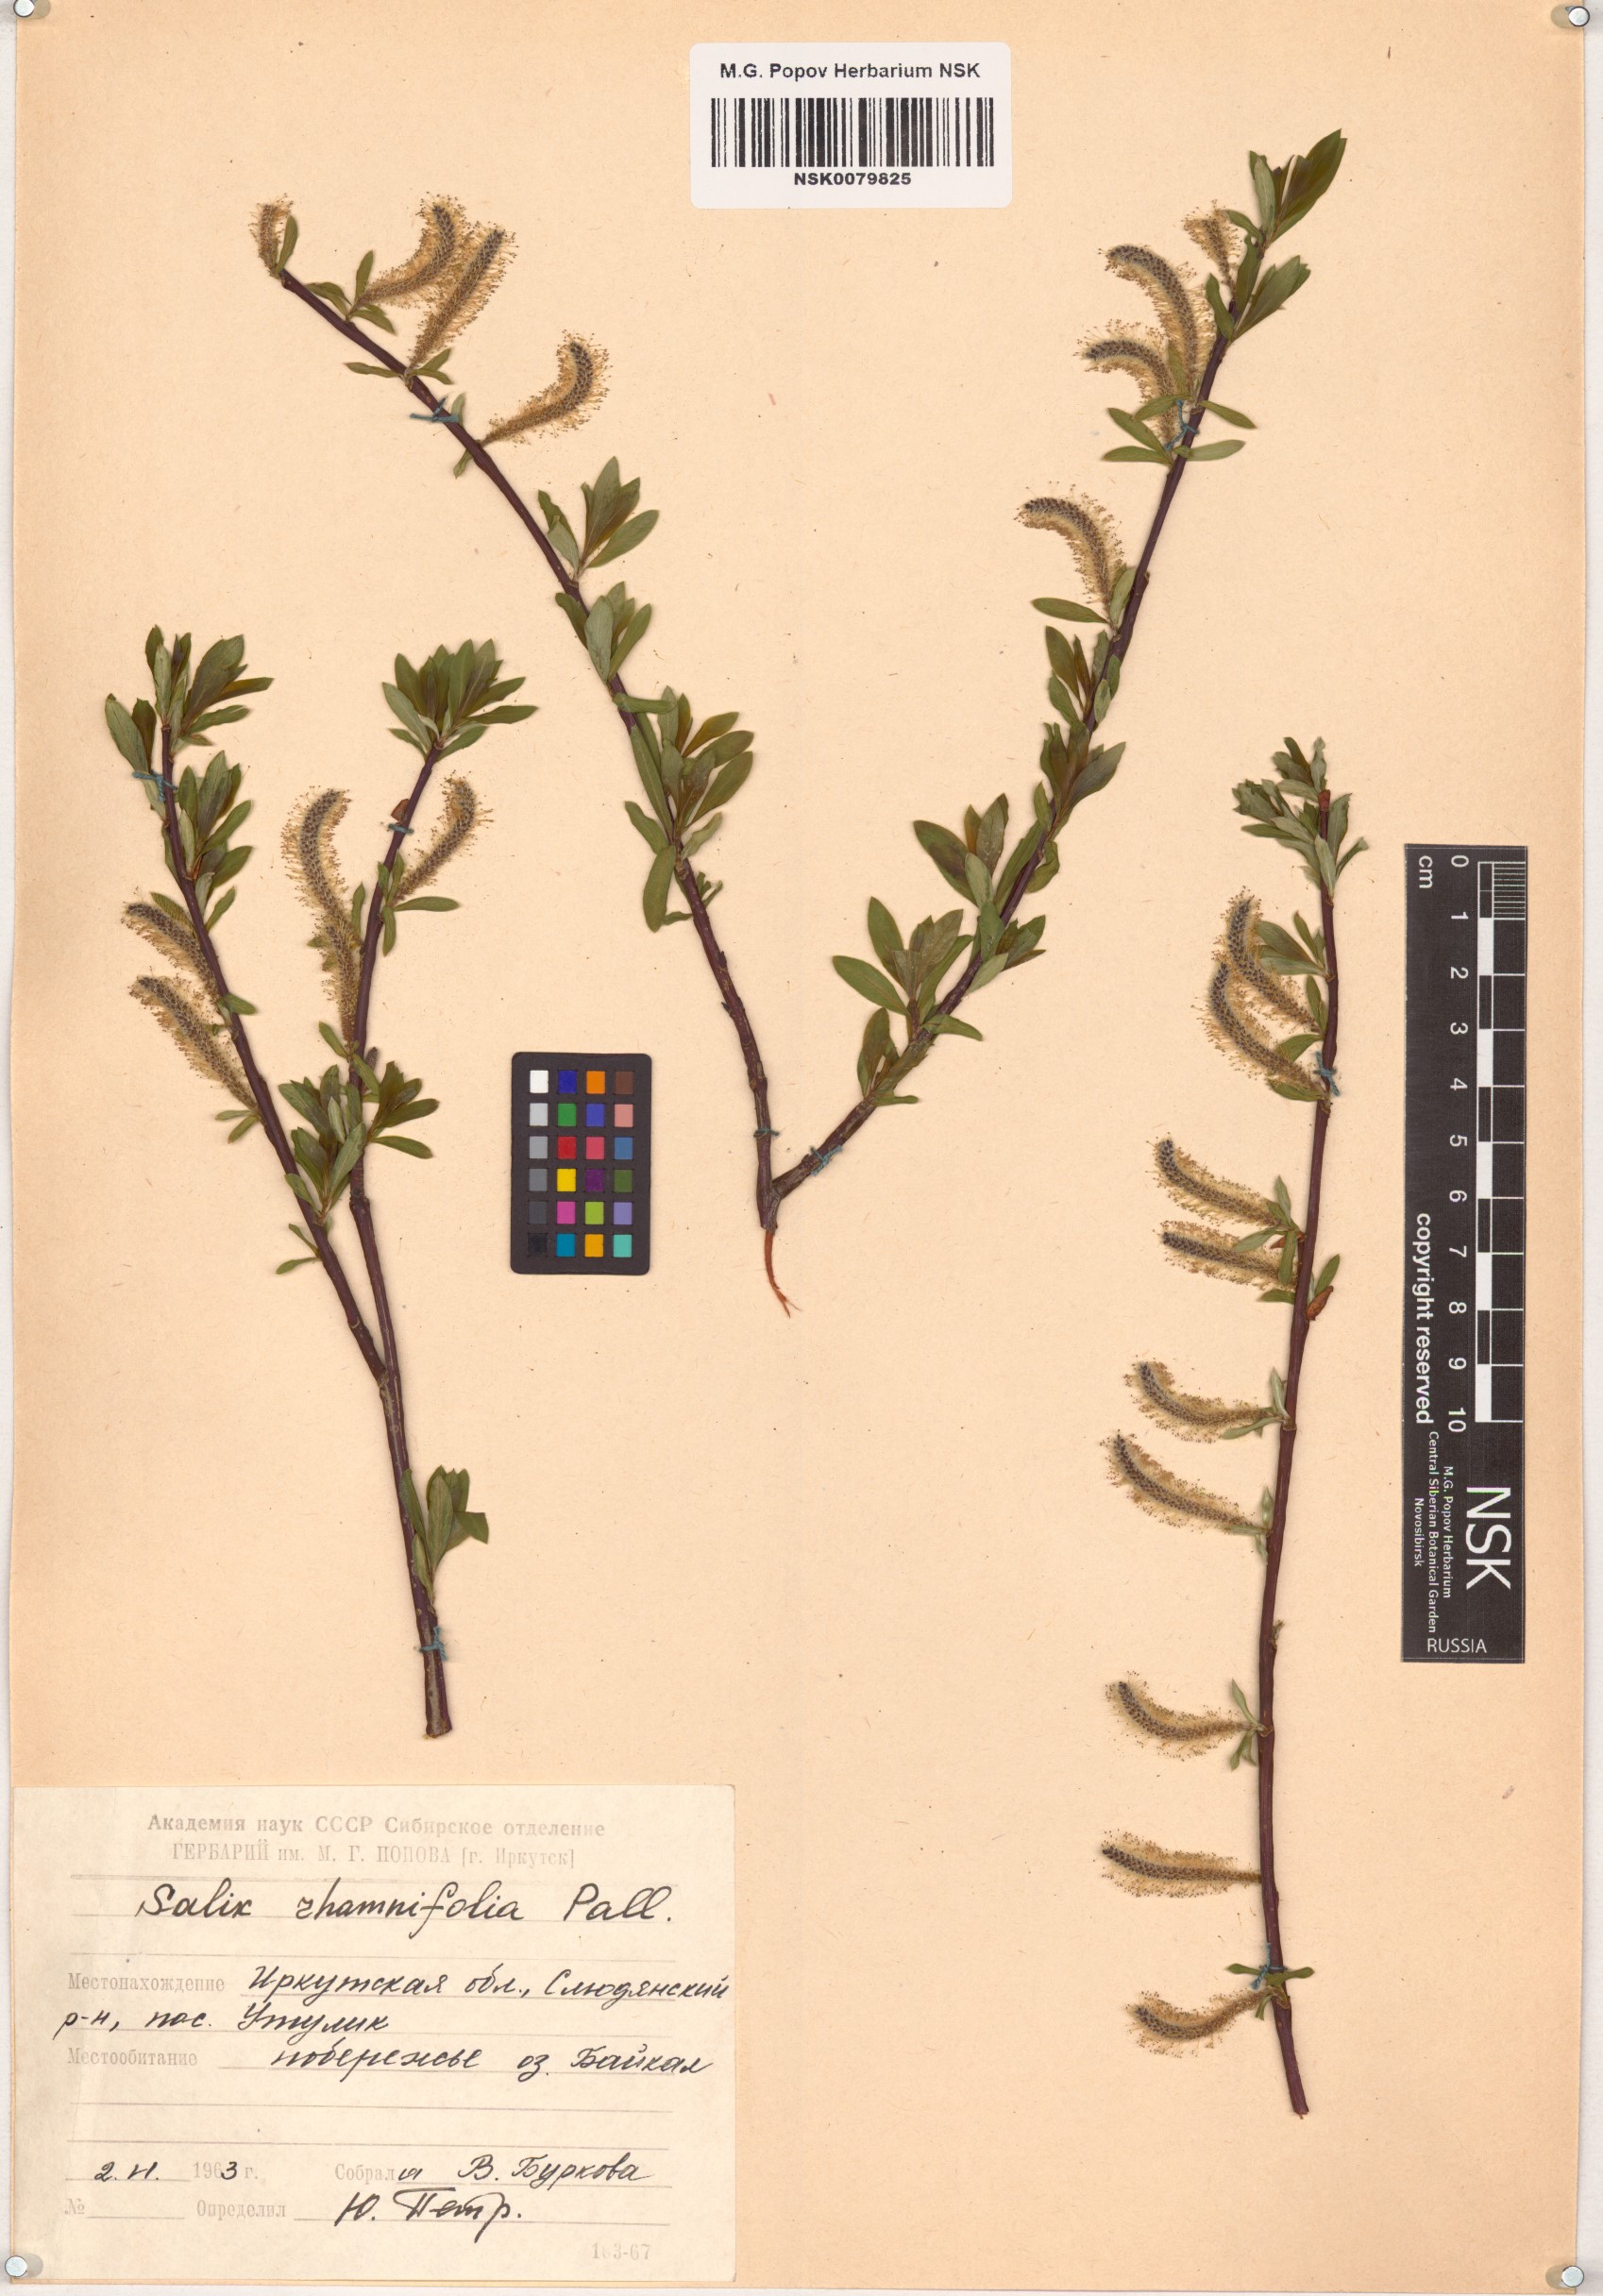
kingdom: Plantae
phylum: Tracheophyta
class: Magnoliopsida
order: Malpighiales
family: Salicaceae
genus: Salix
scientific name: Salix rhamnifolia
